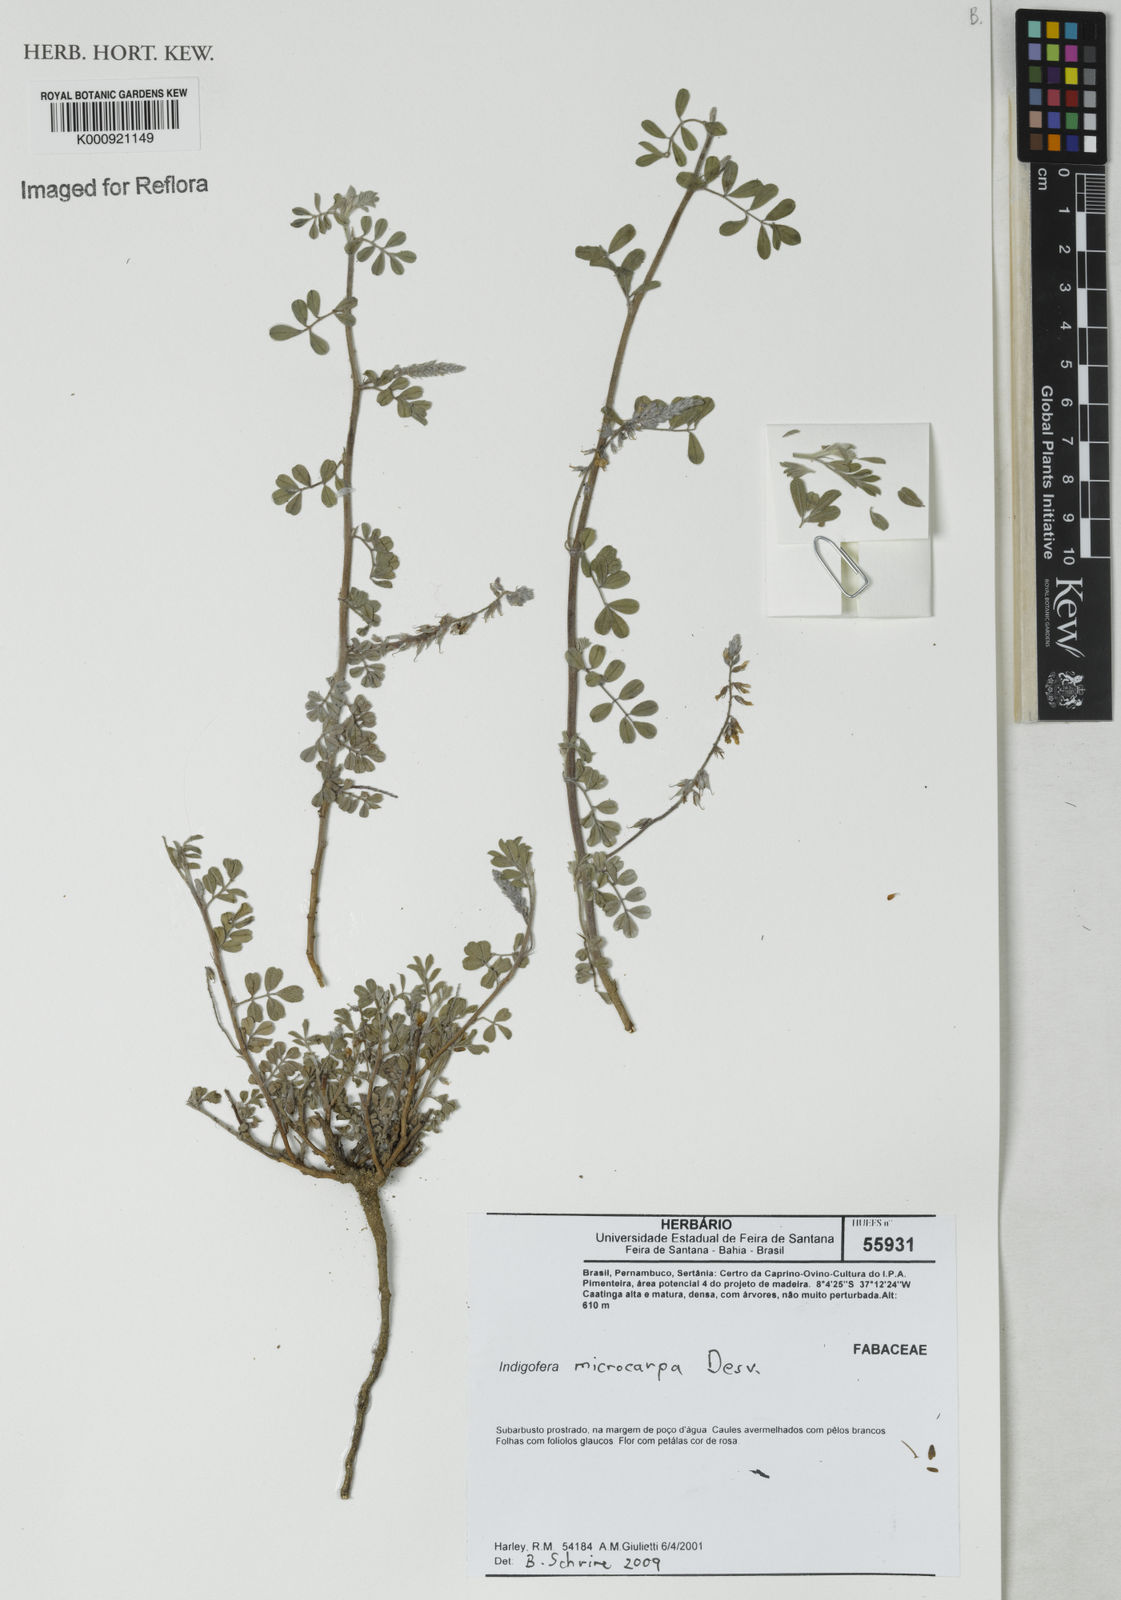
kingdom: Plantae
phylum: Tracheophyta
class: Magnoliopsida
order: Fabales
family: Fabaceae
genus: Indigofera
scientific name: Indigofera microcarpa
